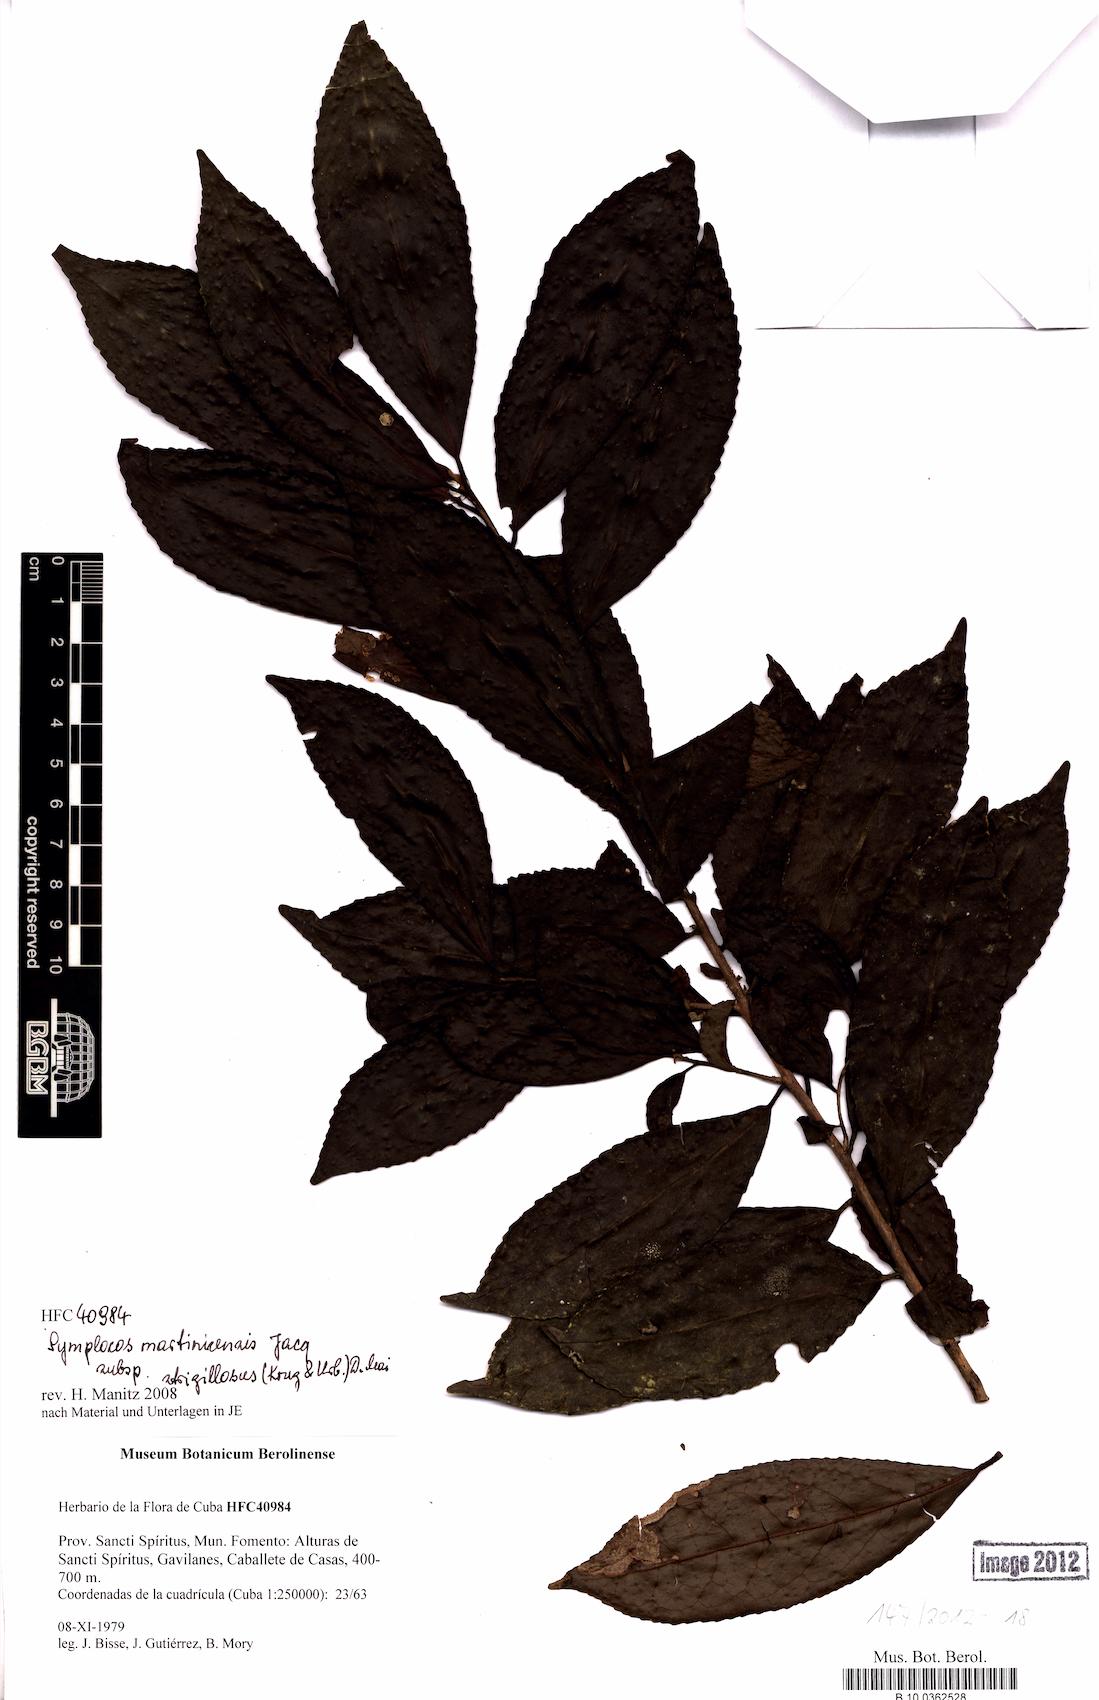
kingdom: Plantae
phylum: Tracheophyta
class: Magnoliopsida
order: Ericales
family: Symplocaceae
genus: Symplocos
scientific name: Symplocos jurgensenii
